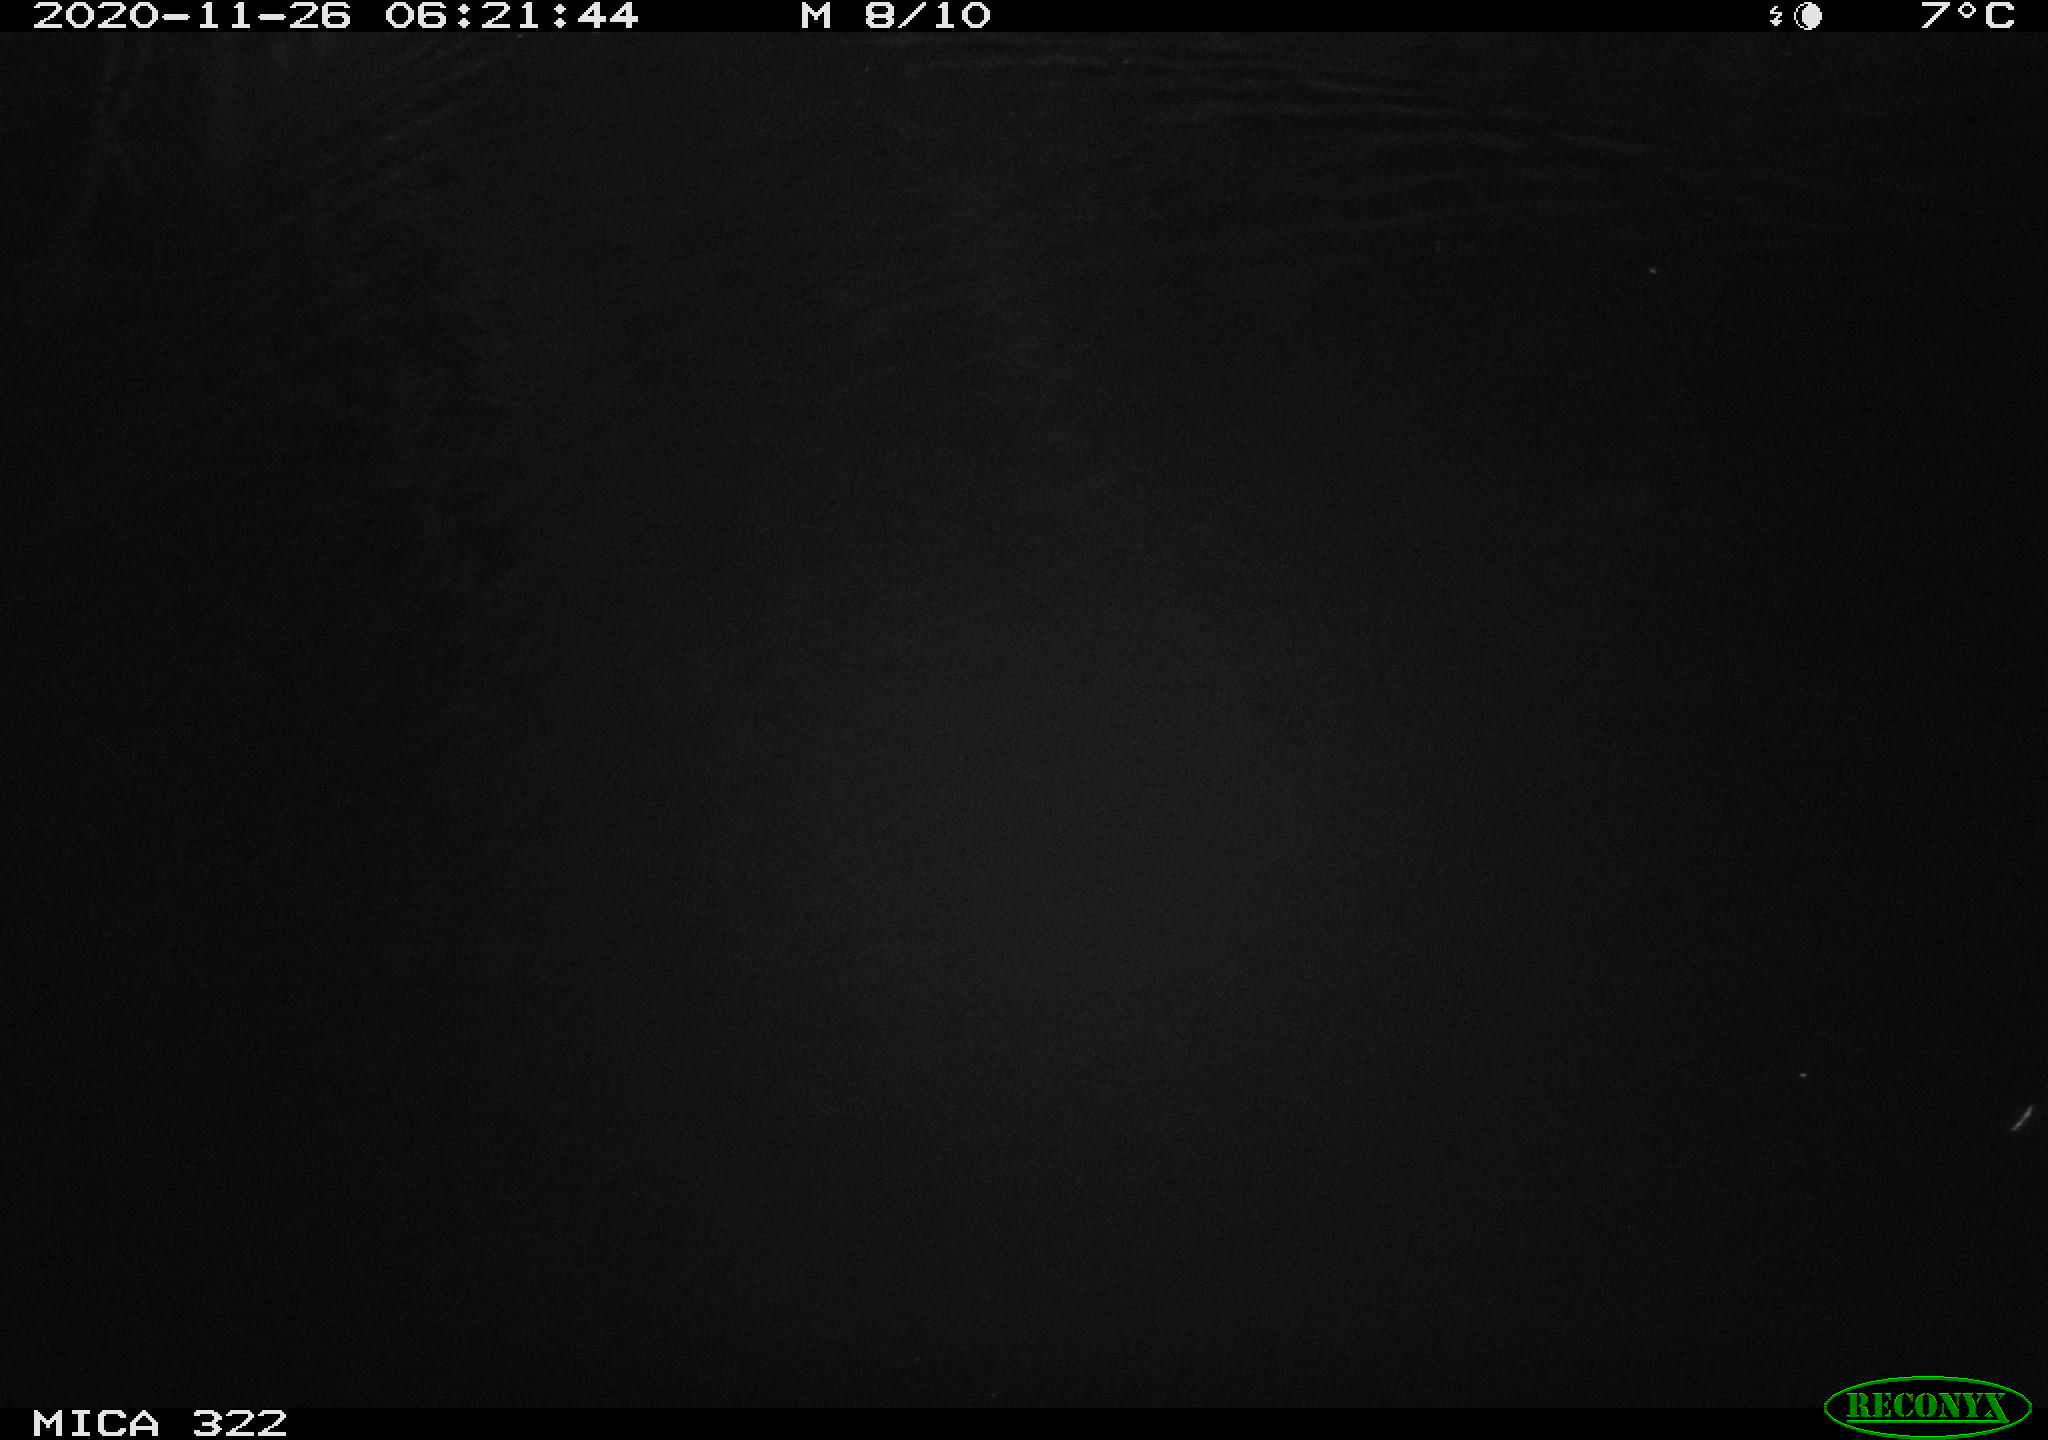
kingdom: Animalia
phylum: Chordata
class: Mammalia
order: Rodentia
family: Muridae
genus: Rattus
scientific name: Rattus norvegicus
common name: Brown rat
